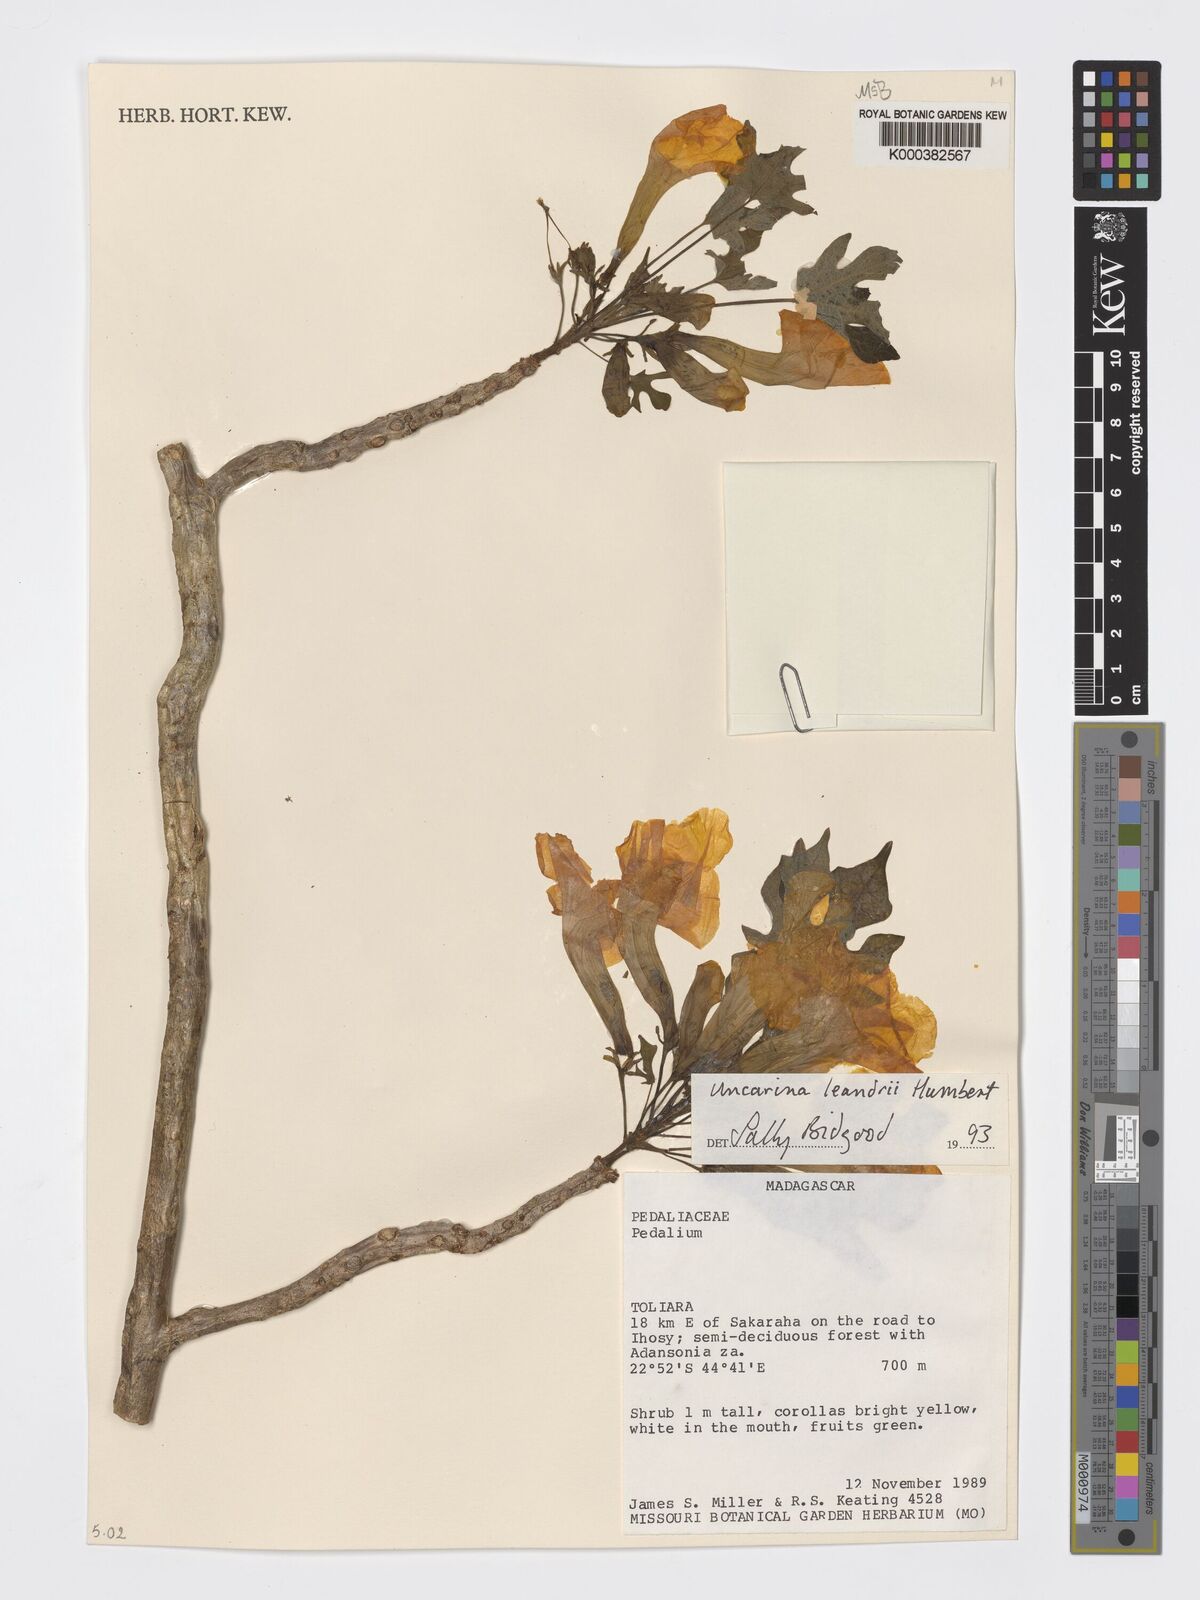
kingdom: Plantae
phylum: Tracheophyta
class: Magnoliopsida
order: Lamiales
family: Pedaliaceae
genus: Uncarina
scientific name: Uncarina leandrii
